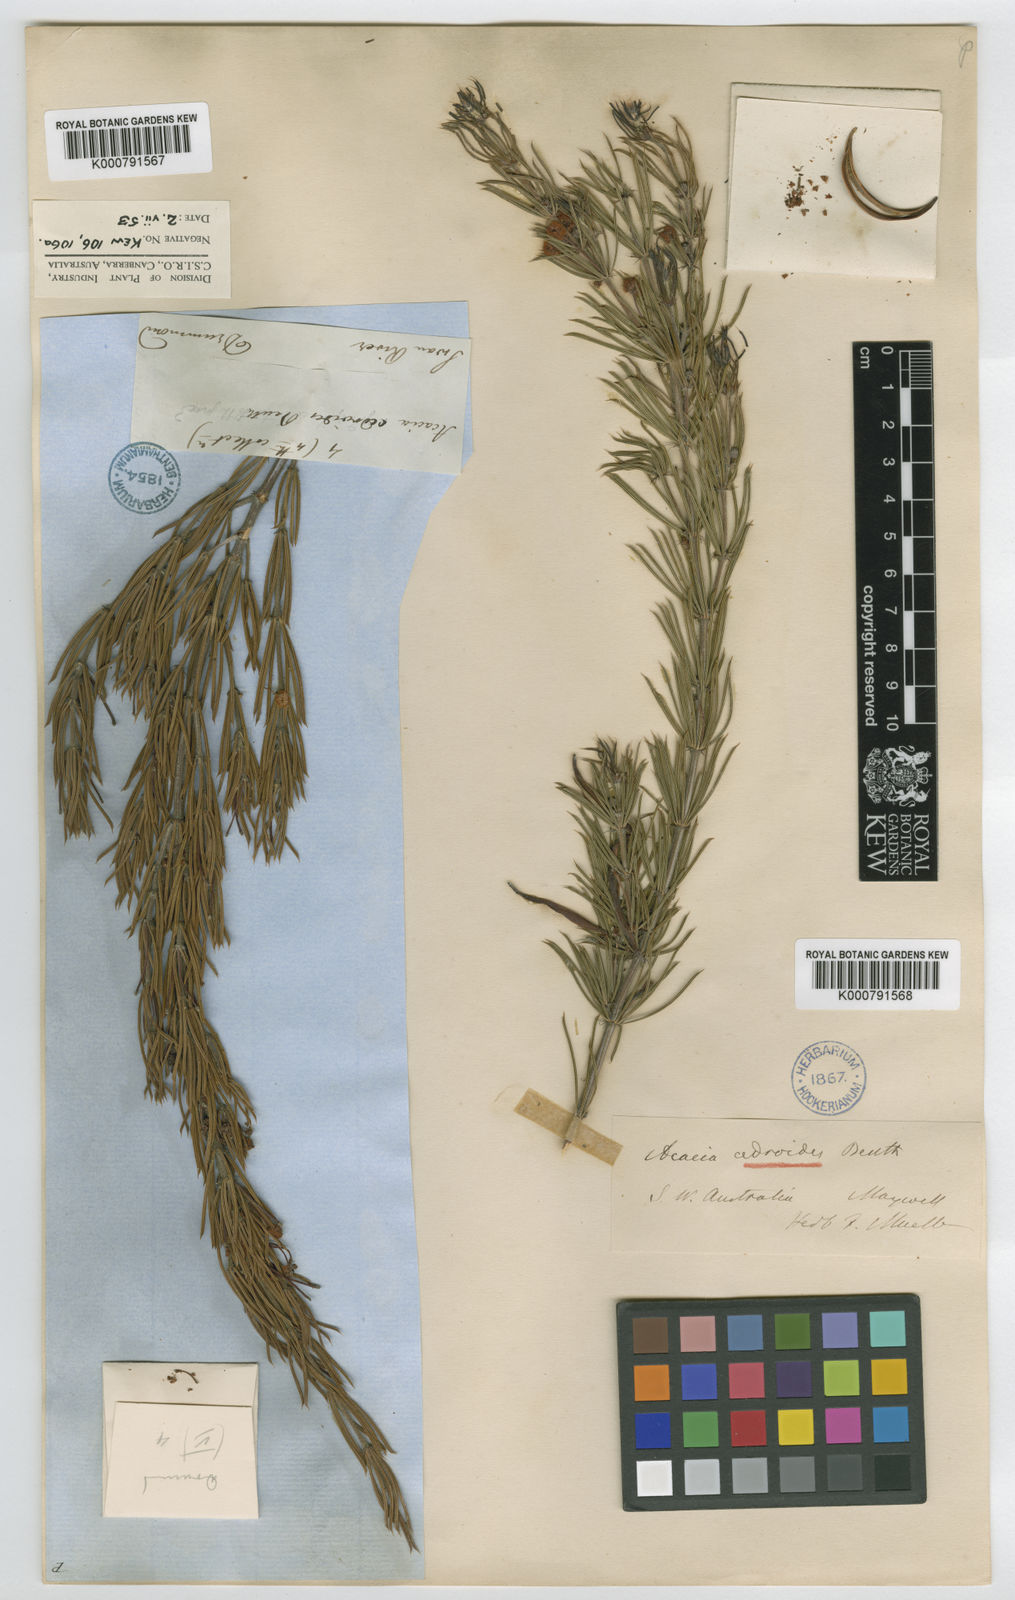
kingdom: Plantae
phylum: Tracheophyta
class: Magnoliopsida
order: Fabales
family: Fabaceae
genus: Acacia
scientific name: Acacia
